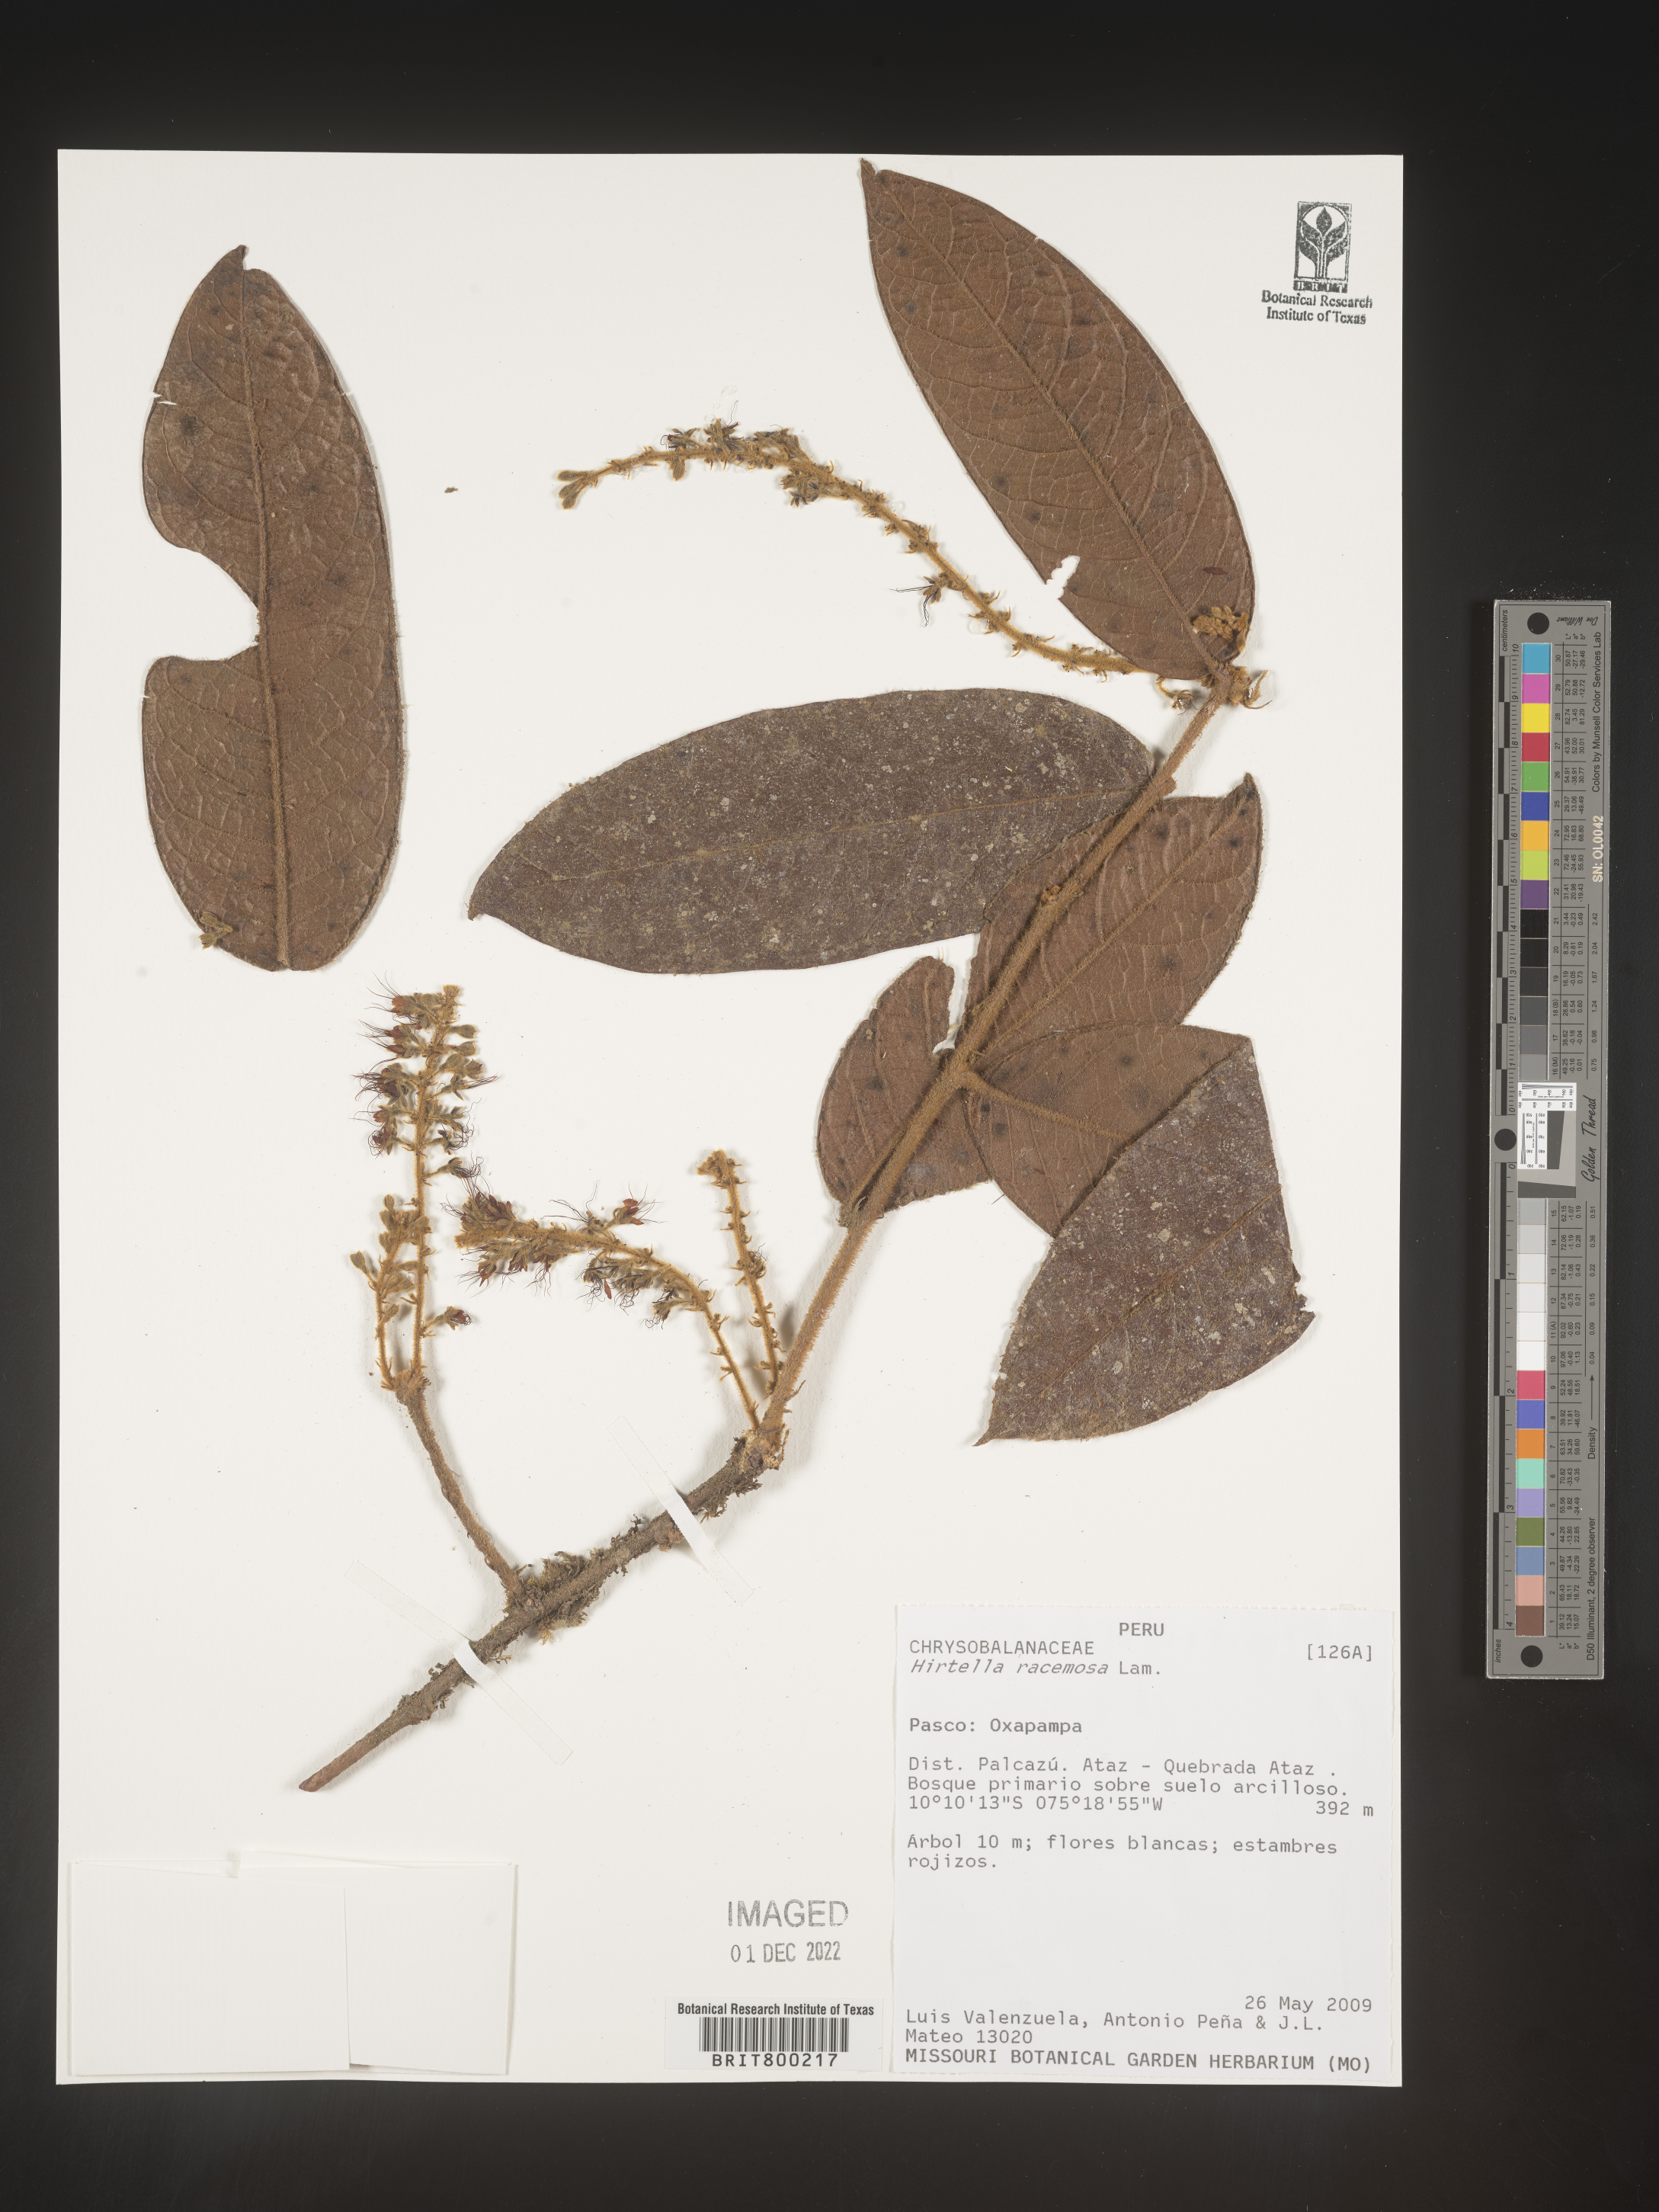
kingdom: Plantae
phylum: Tracheophyta
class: Magnoliopsida
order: Malpighiales
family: Chrysobalanaceae
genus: Hirtella
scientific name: Hirtella
